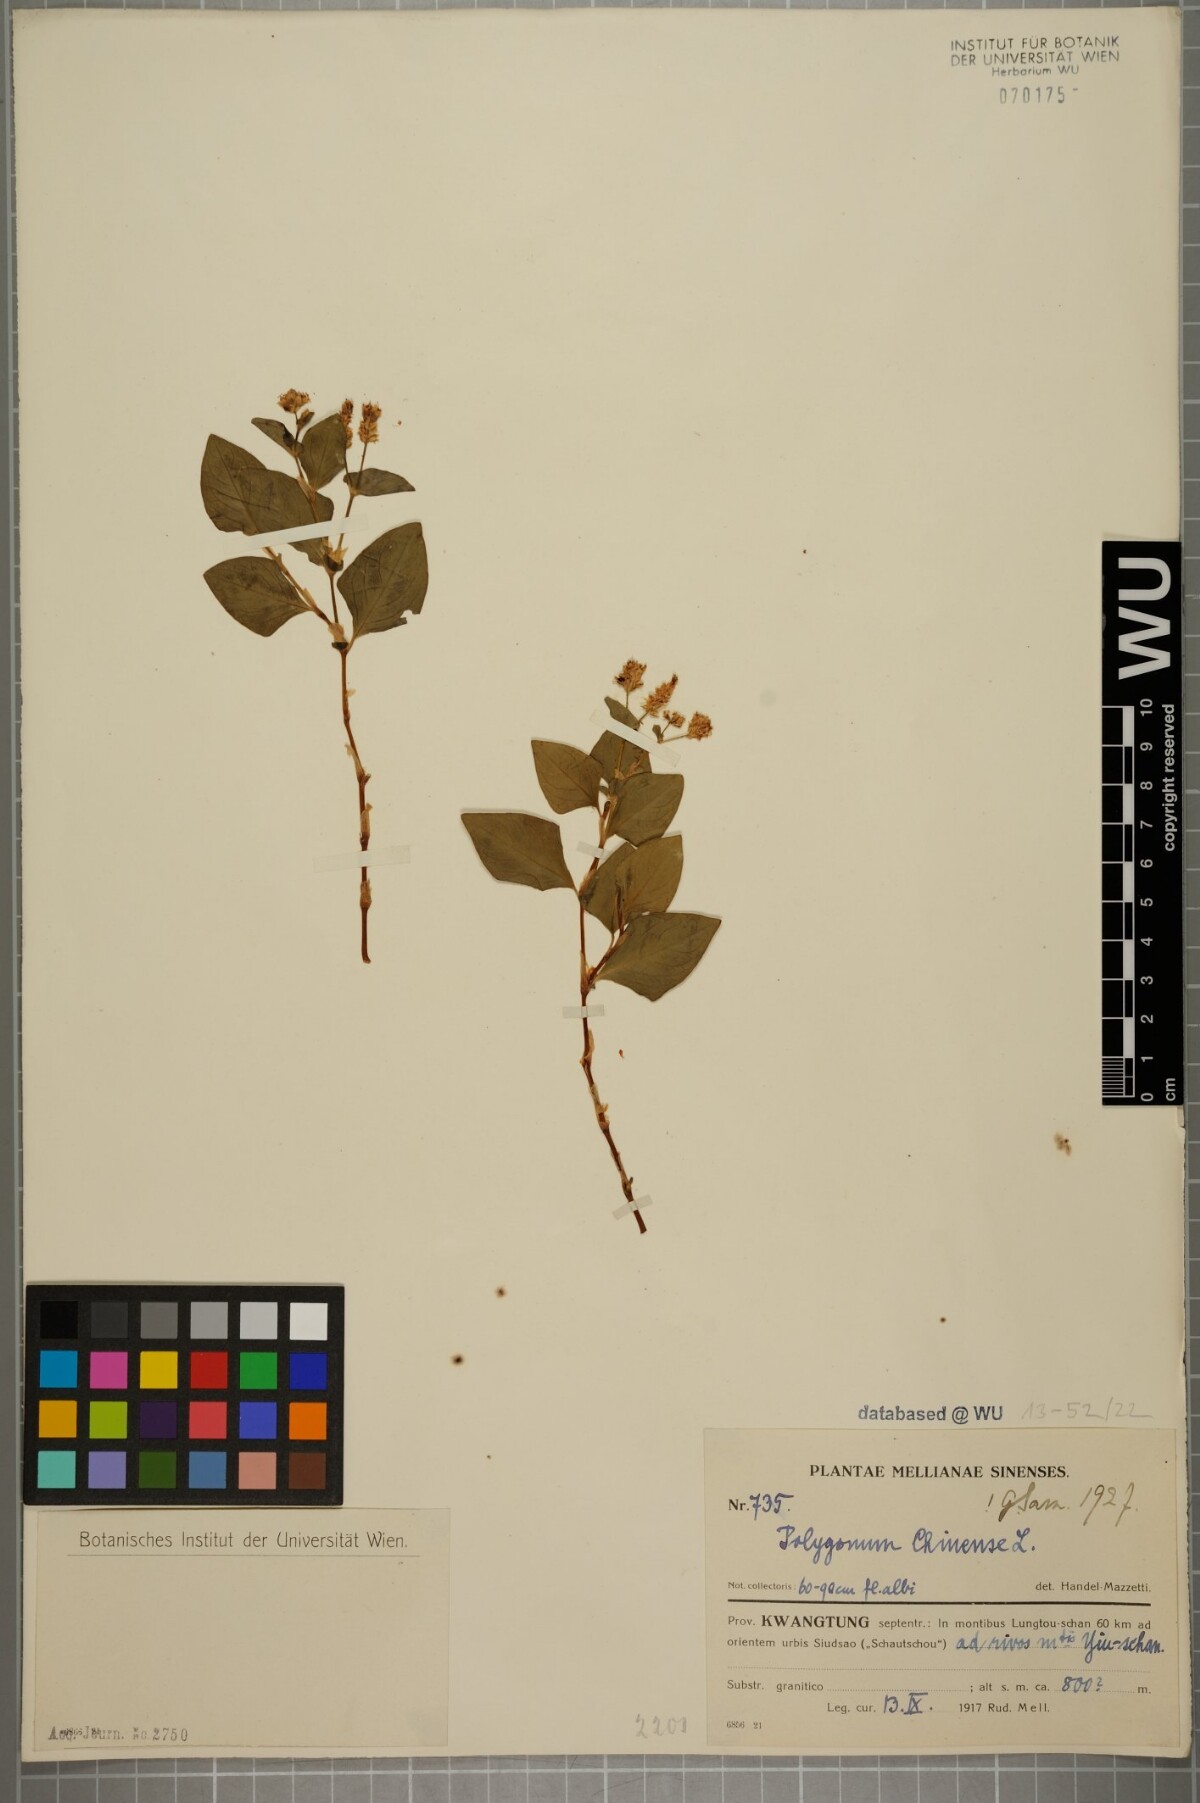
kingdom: Plantae
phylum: Tracheophyta
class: Magnoliopsida
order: Caryophyllales
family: Polygonaceae
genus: Persicaria
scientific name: Persicaria chinensis
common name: Chinese knotweed
